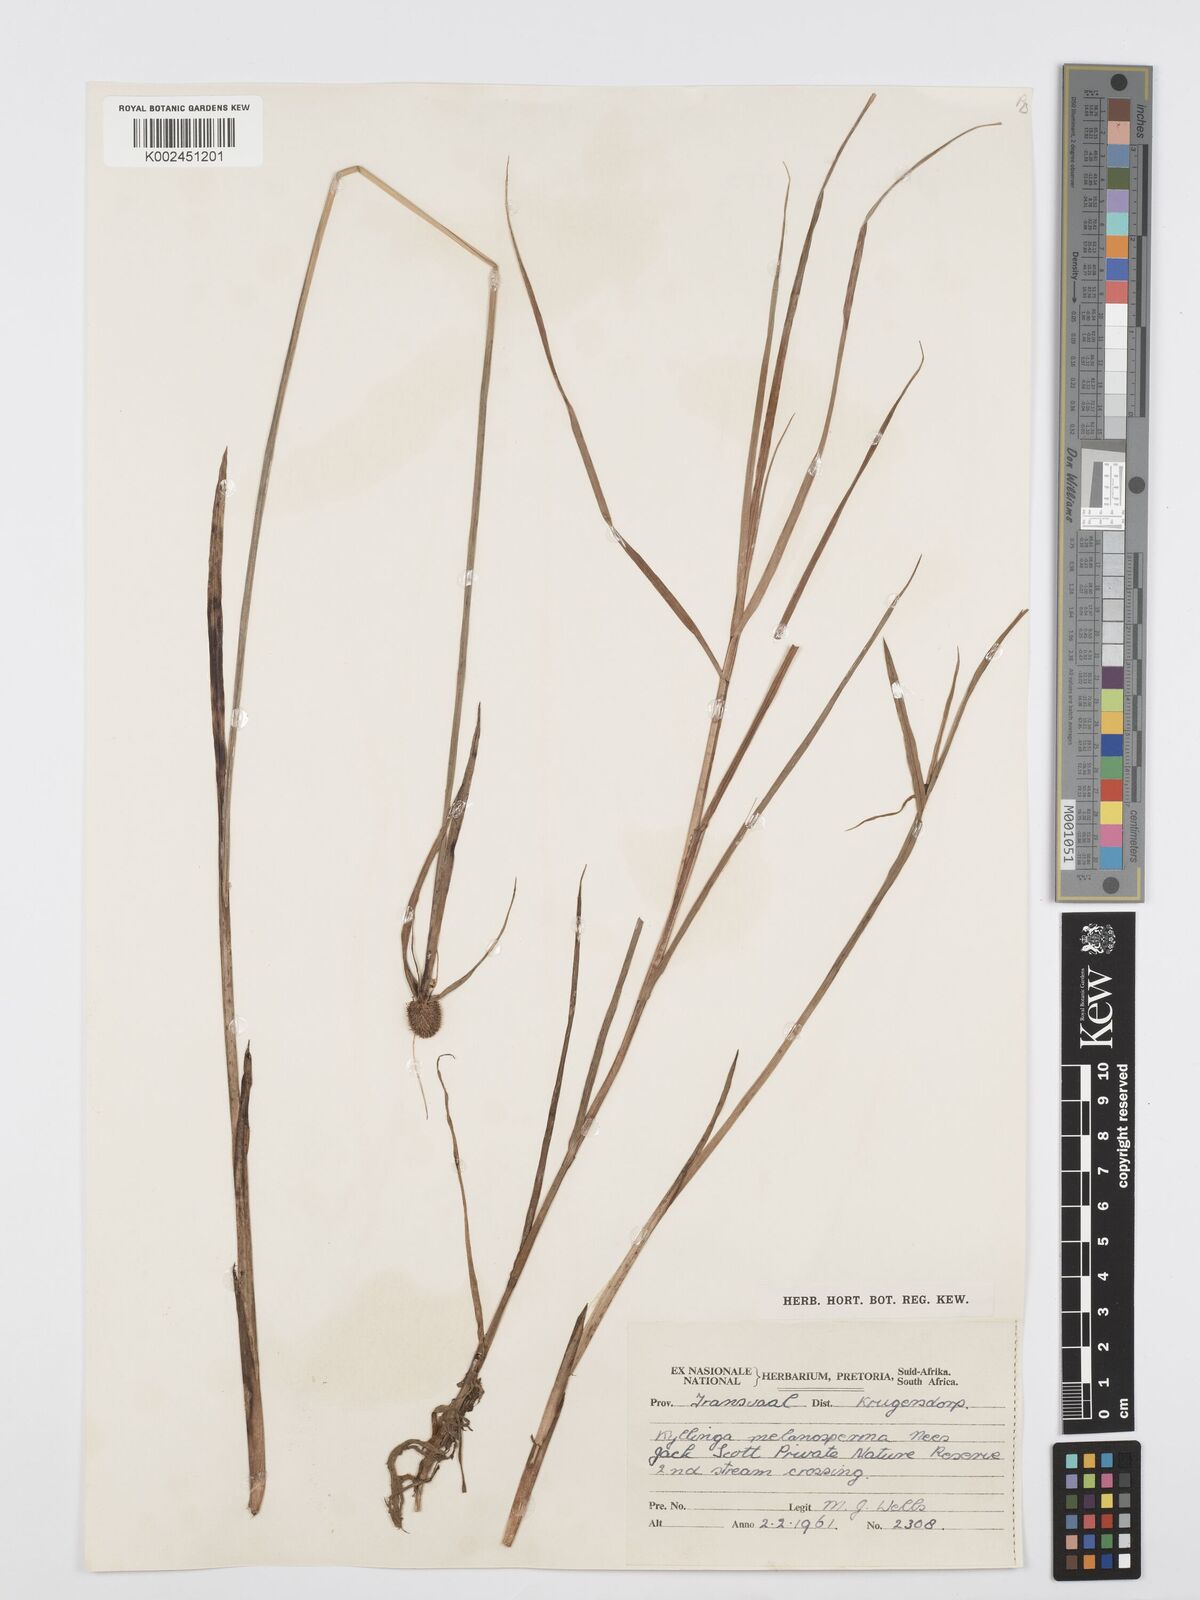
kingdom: Plantae
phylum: Tracheophyta
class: Liliopsida
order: Poales
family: Cyperaceae
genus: Cyperus
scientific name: Cyperus melanospermus
